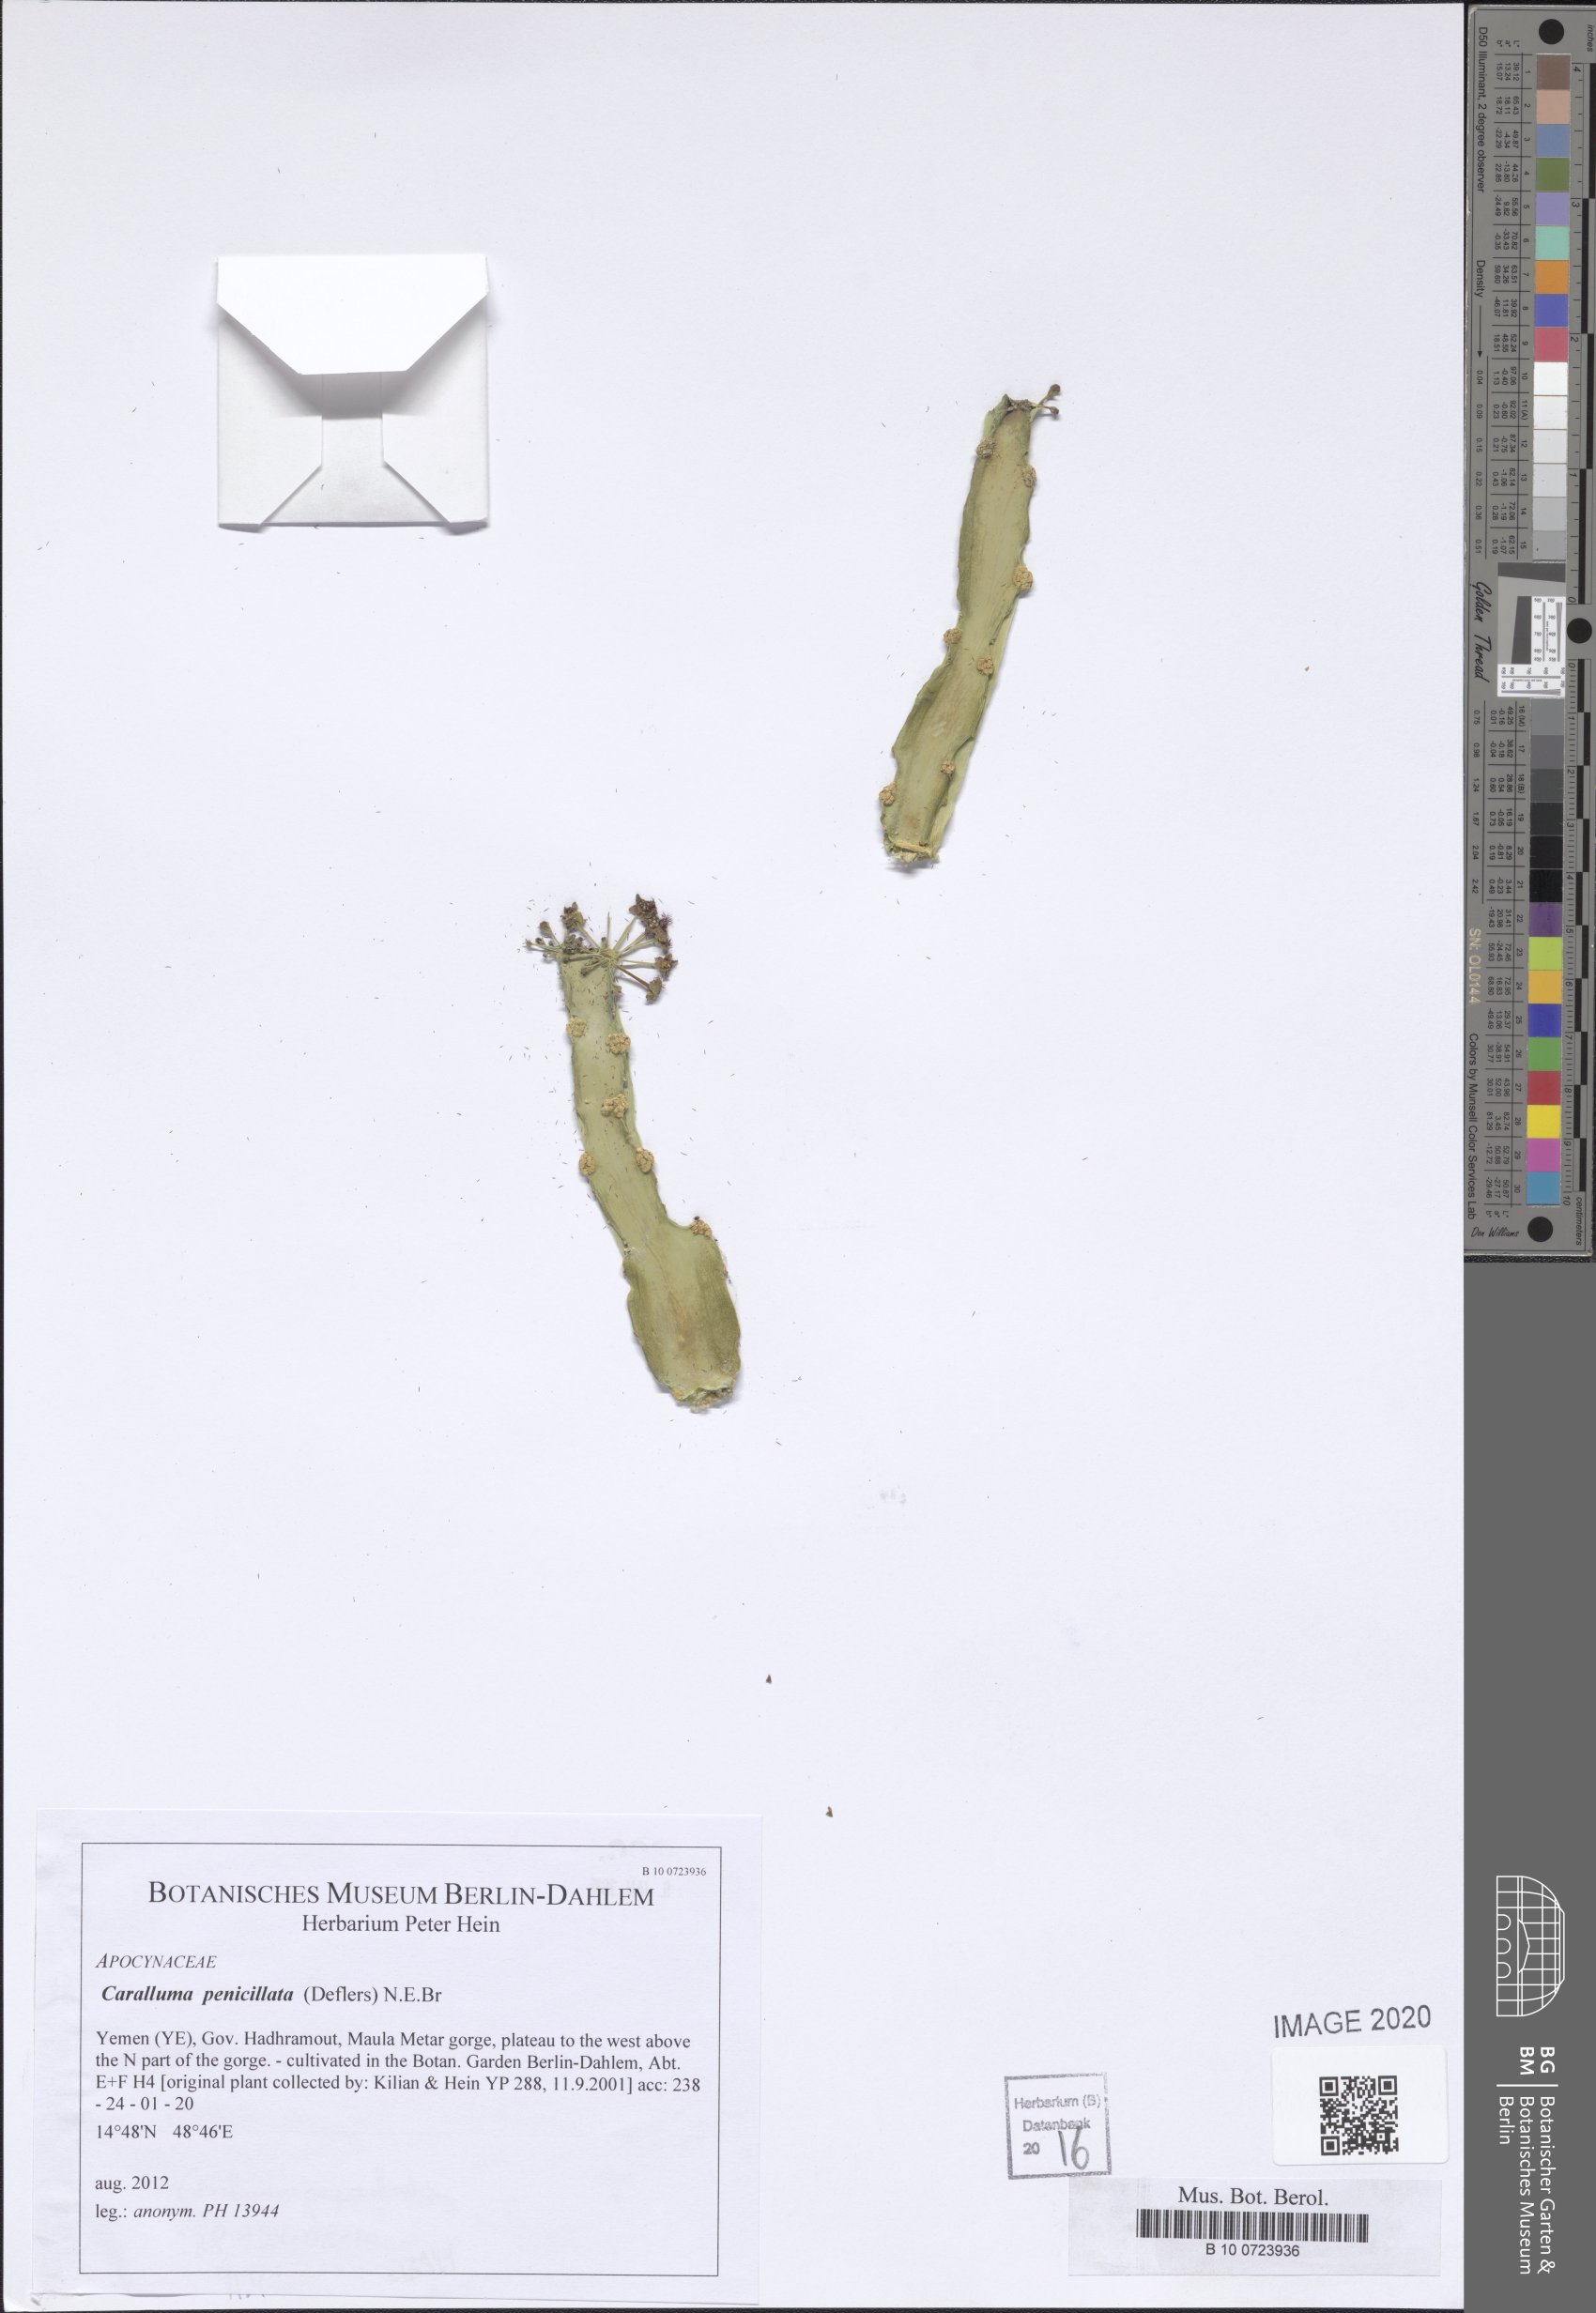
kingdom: Plantae
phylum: Tracheophyta
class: Magnoliopsida
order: Gentianales
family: Apocynaceae
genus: Ceropegia
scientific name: Ceropegia penicillata
